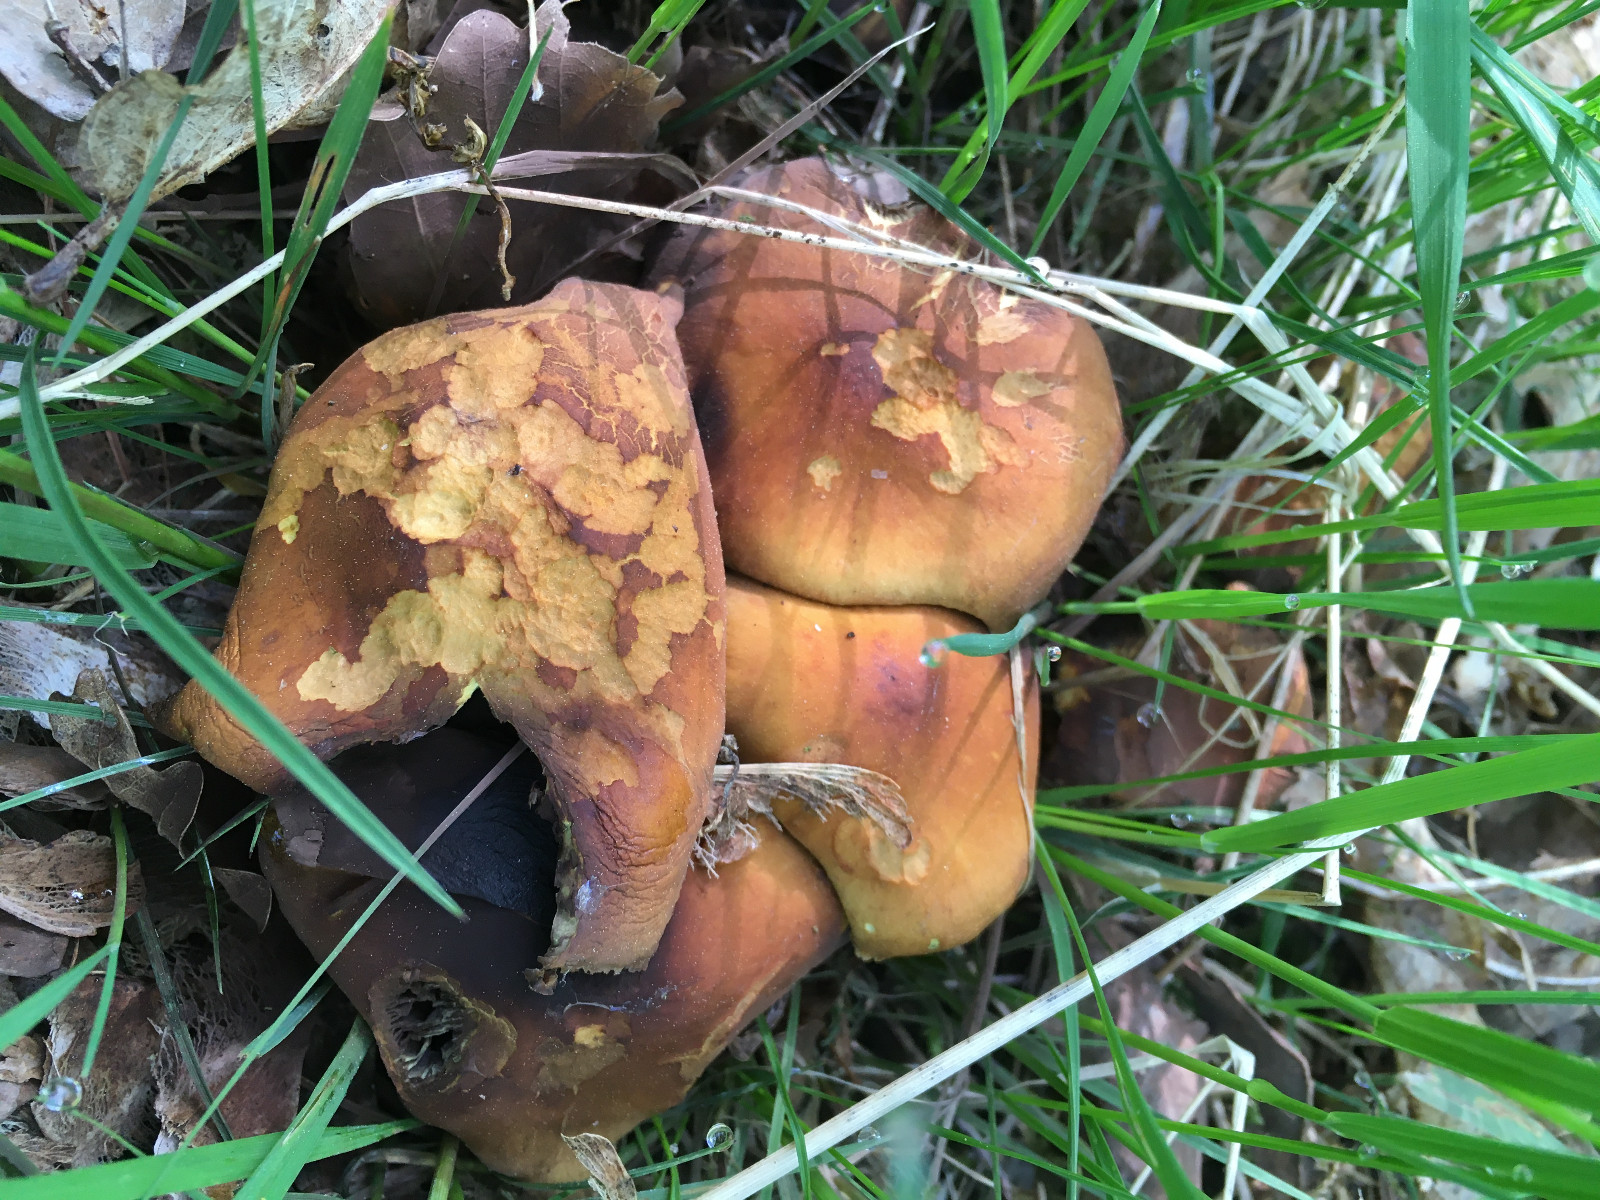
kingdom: Fungi
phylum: Basidiomycota
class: Agaricomycetes
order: Agaricales
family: Strophariaceae
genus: Hypholoma
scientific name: Hypholoma fasciculare
